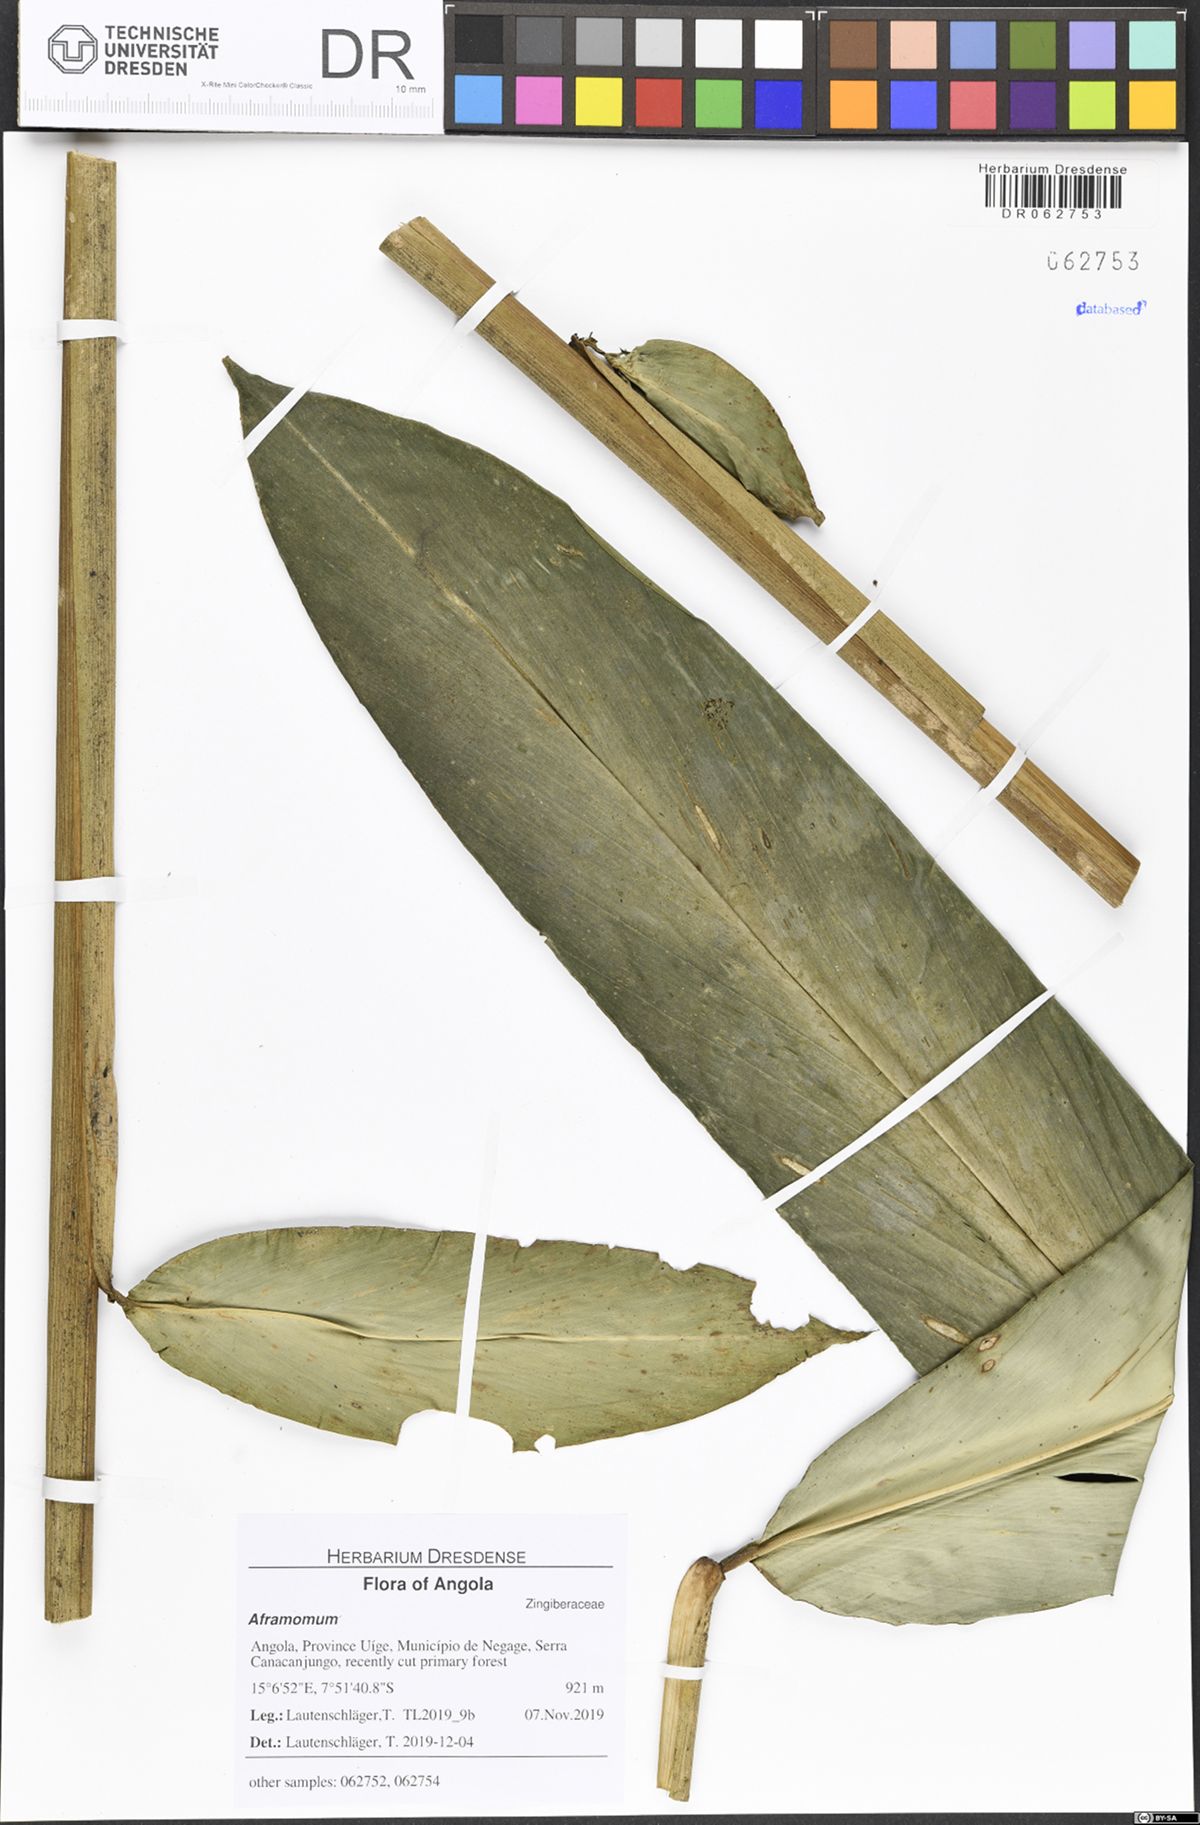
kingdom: Plantae
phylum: Tracheophyta
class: Liliopsida
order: Zingiberales
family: Zingiberaceae
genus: Aframomum
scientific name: Aframomum giganteum
